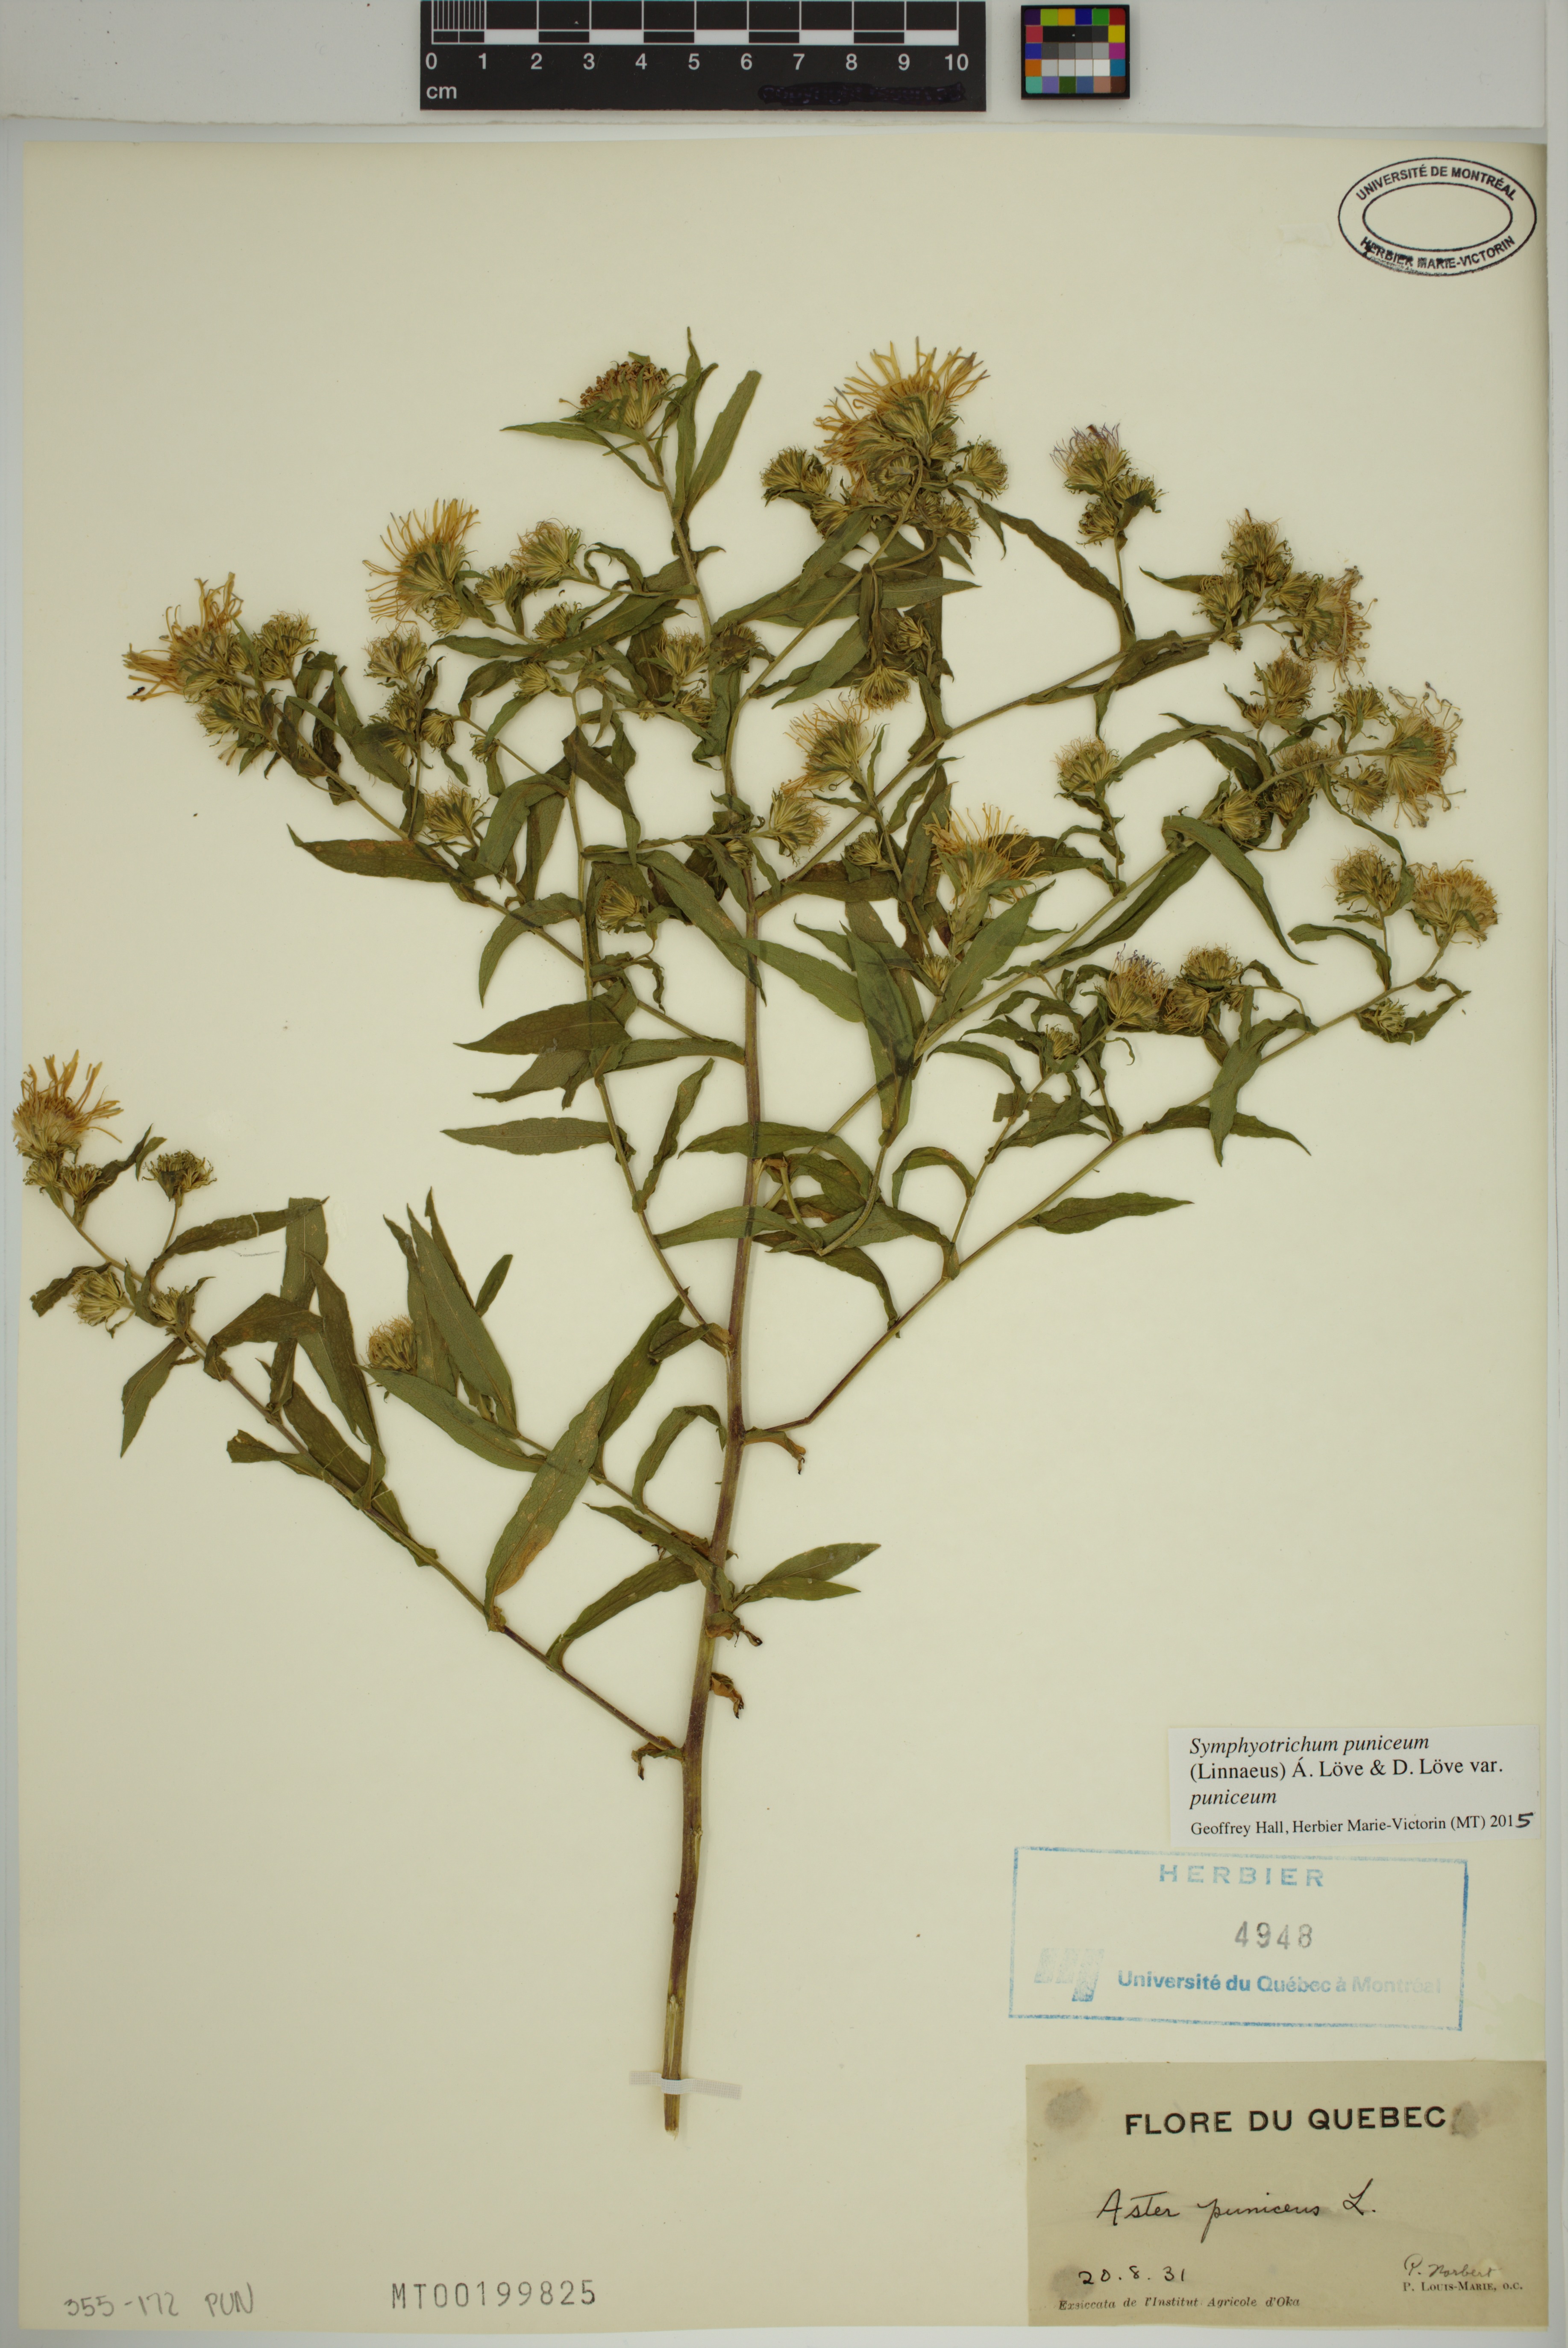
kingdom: Plantae
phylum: Tracheophyta
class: Magnoliopsida
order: Asterales
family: Asteraceae
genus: Symphyotrichum
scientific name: Symphyotrichum puniceum
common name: Bog aster
